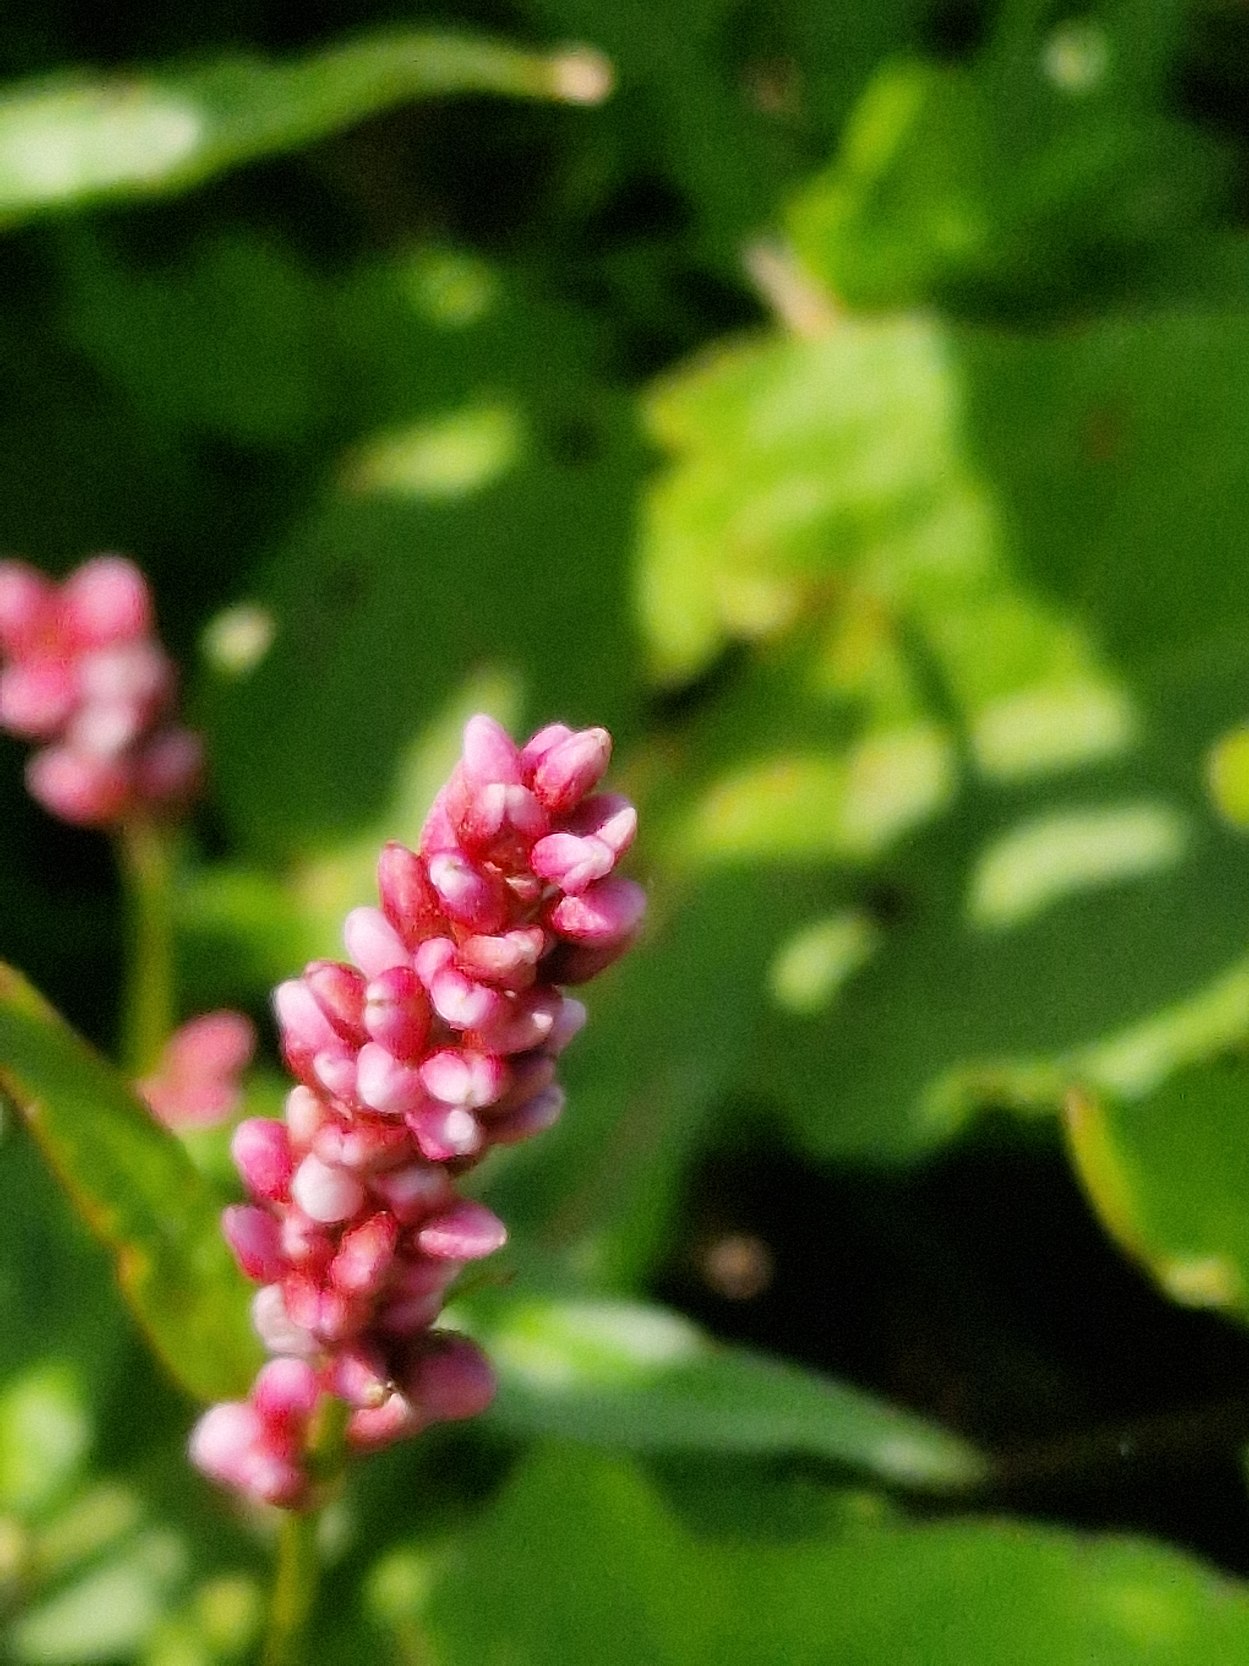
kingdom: Plantae
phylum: Tracheophyta
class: Magnoliopsida
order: Caryophyllales
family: Polygonaceae
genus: Persicaria
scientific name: Persicaria maculosa
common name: Fersken-pileurt
